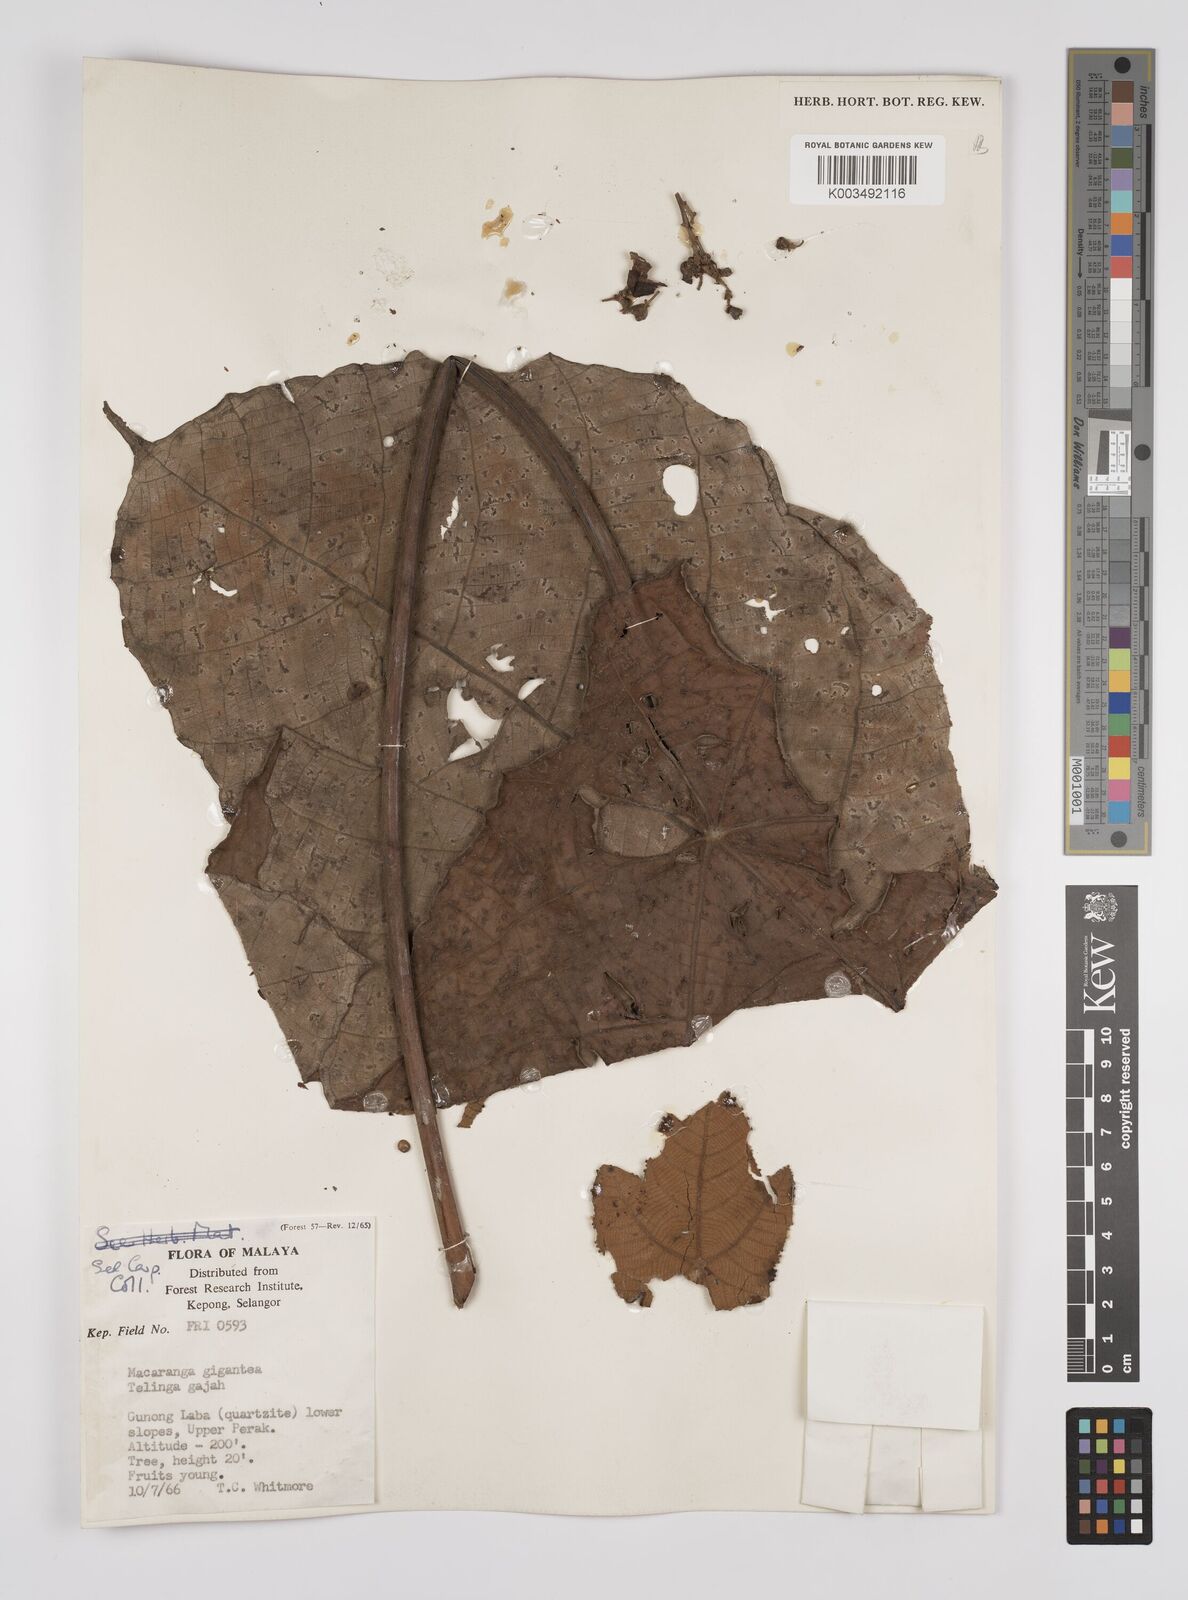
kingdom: Plantae
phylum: Tracheophyta
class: Magnoliopsida
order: Malpighiales
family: Euphorbiaceae
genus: Macaranga
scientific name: Macaranga gigantea
